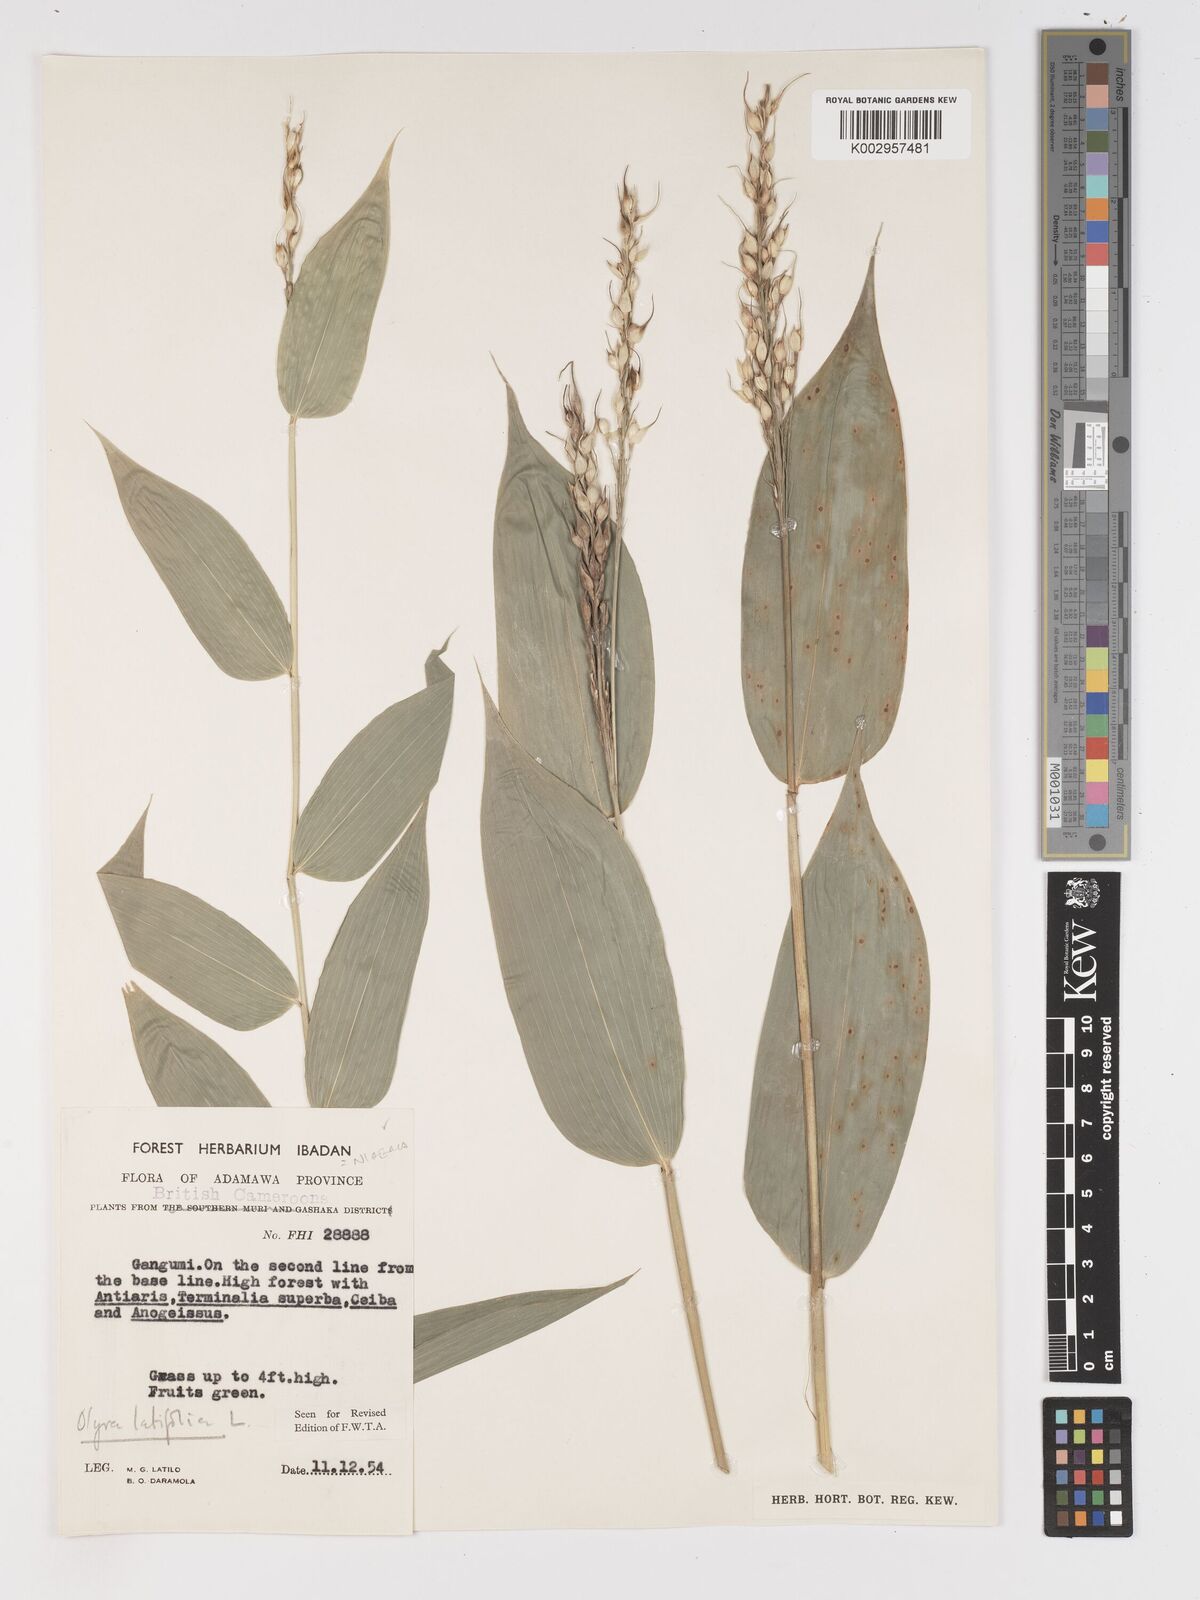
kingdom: Plantae
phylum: Tracheophyta
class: Liliopsida
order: Poales
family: Poaceae
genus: Olyra
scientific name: Olyra latifolia
